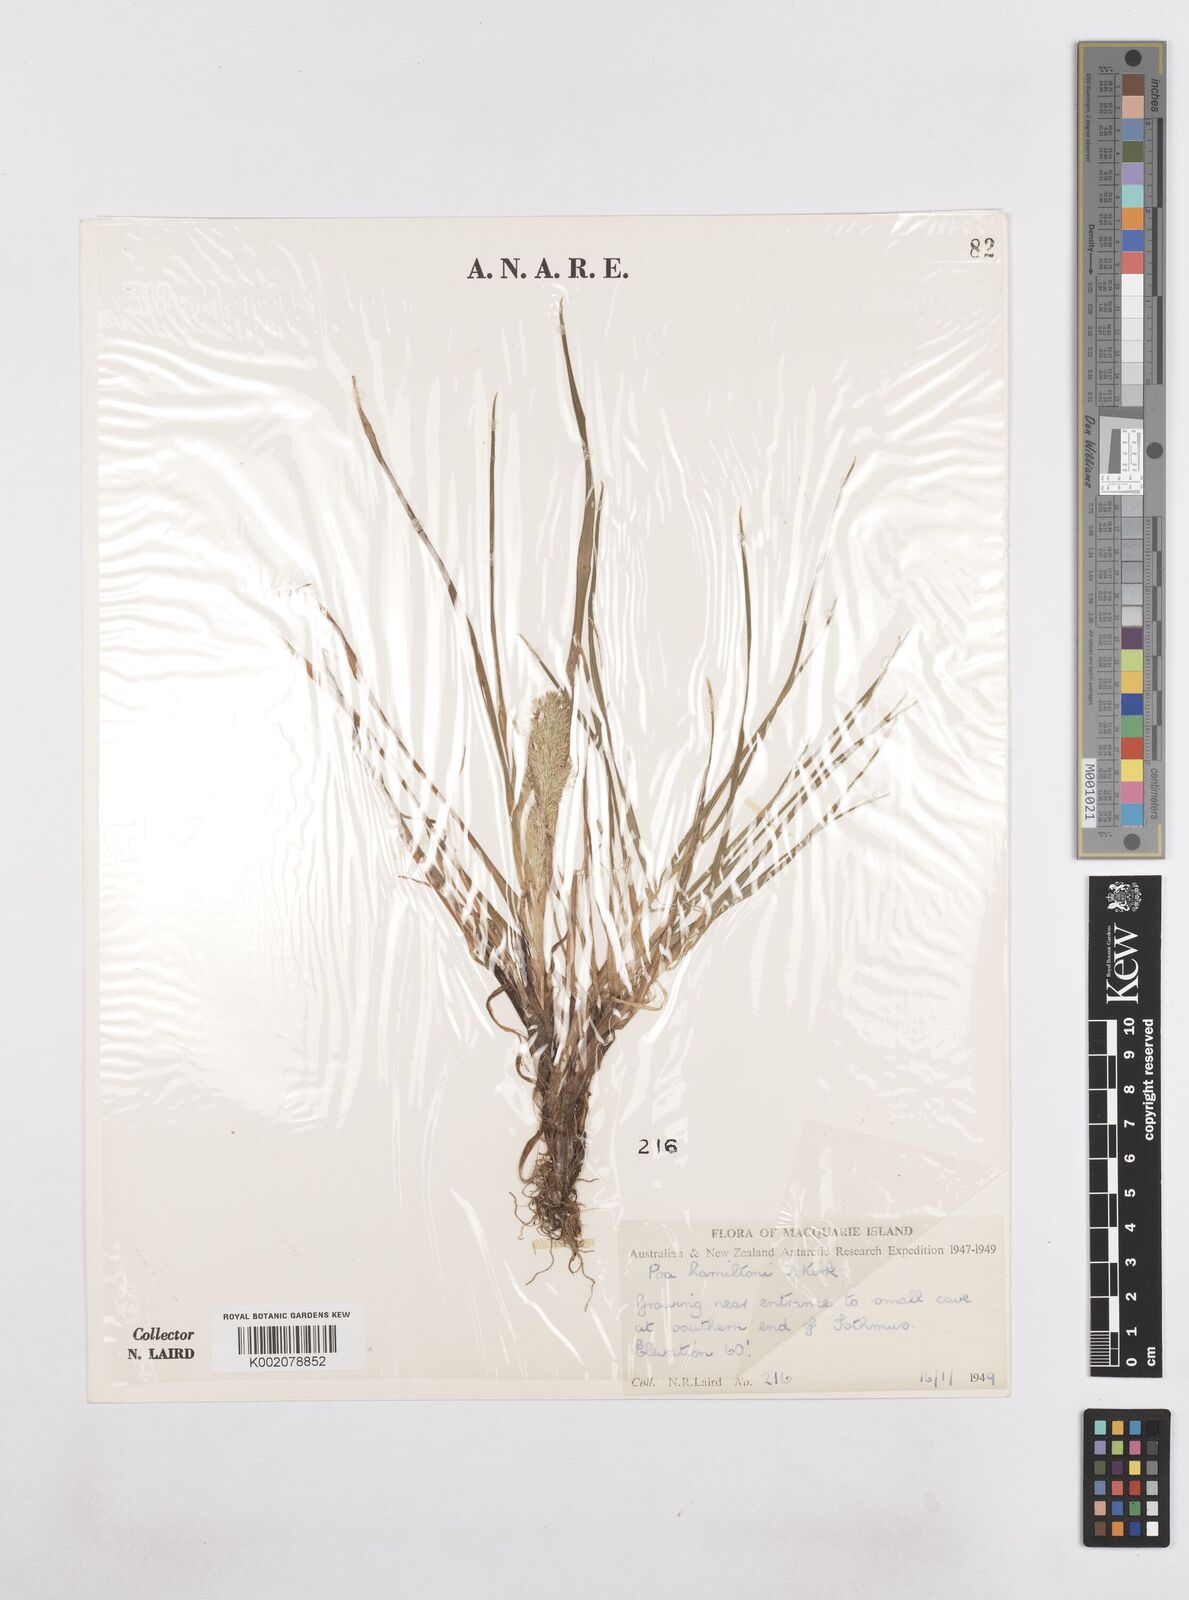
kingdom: Plantae
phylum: Tracheophyta
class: Liliopsida
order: Poales
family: Poaceae
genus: Poa
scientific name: Poa cookii
